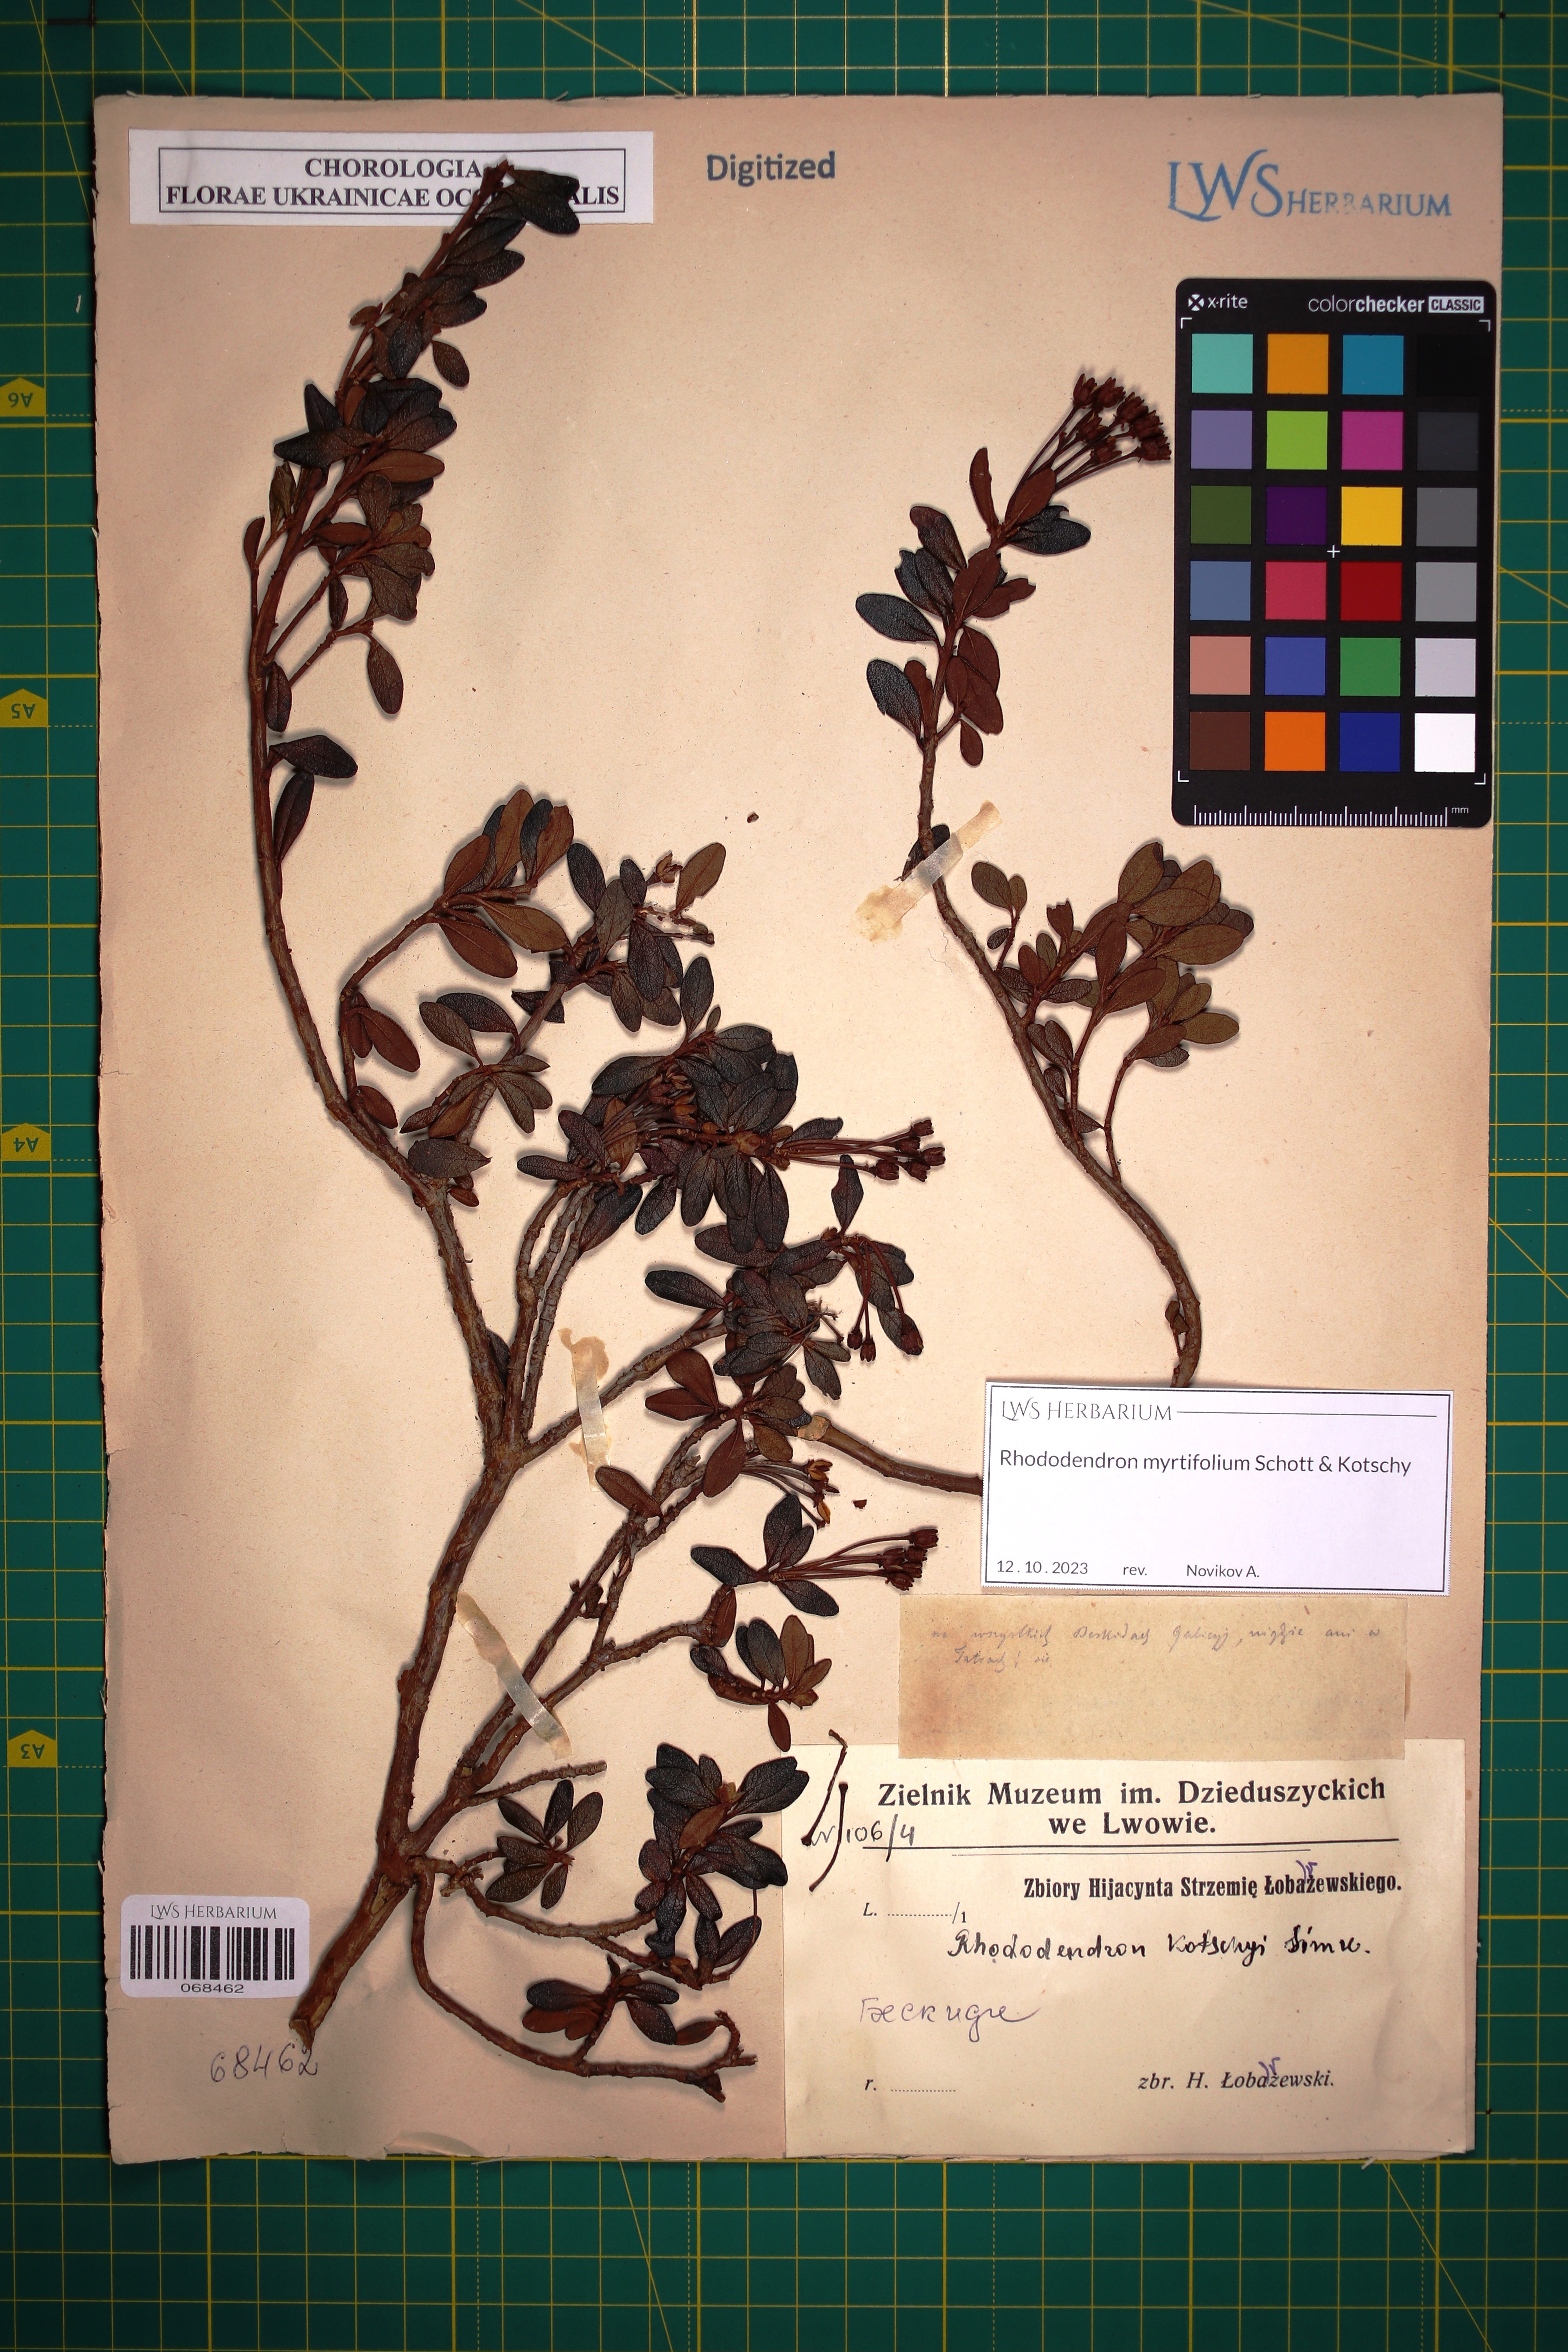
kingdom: Plantae
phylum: Tracheophyta
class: Magnoliopsida
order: Ericales
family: Ericaceae
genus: Rhododendron
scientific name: Rhododendron kotschyi
